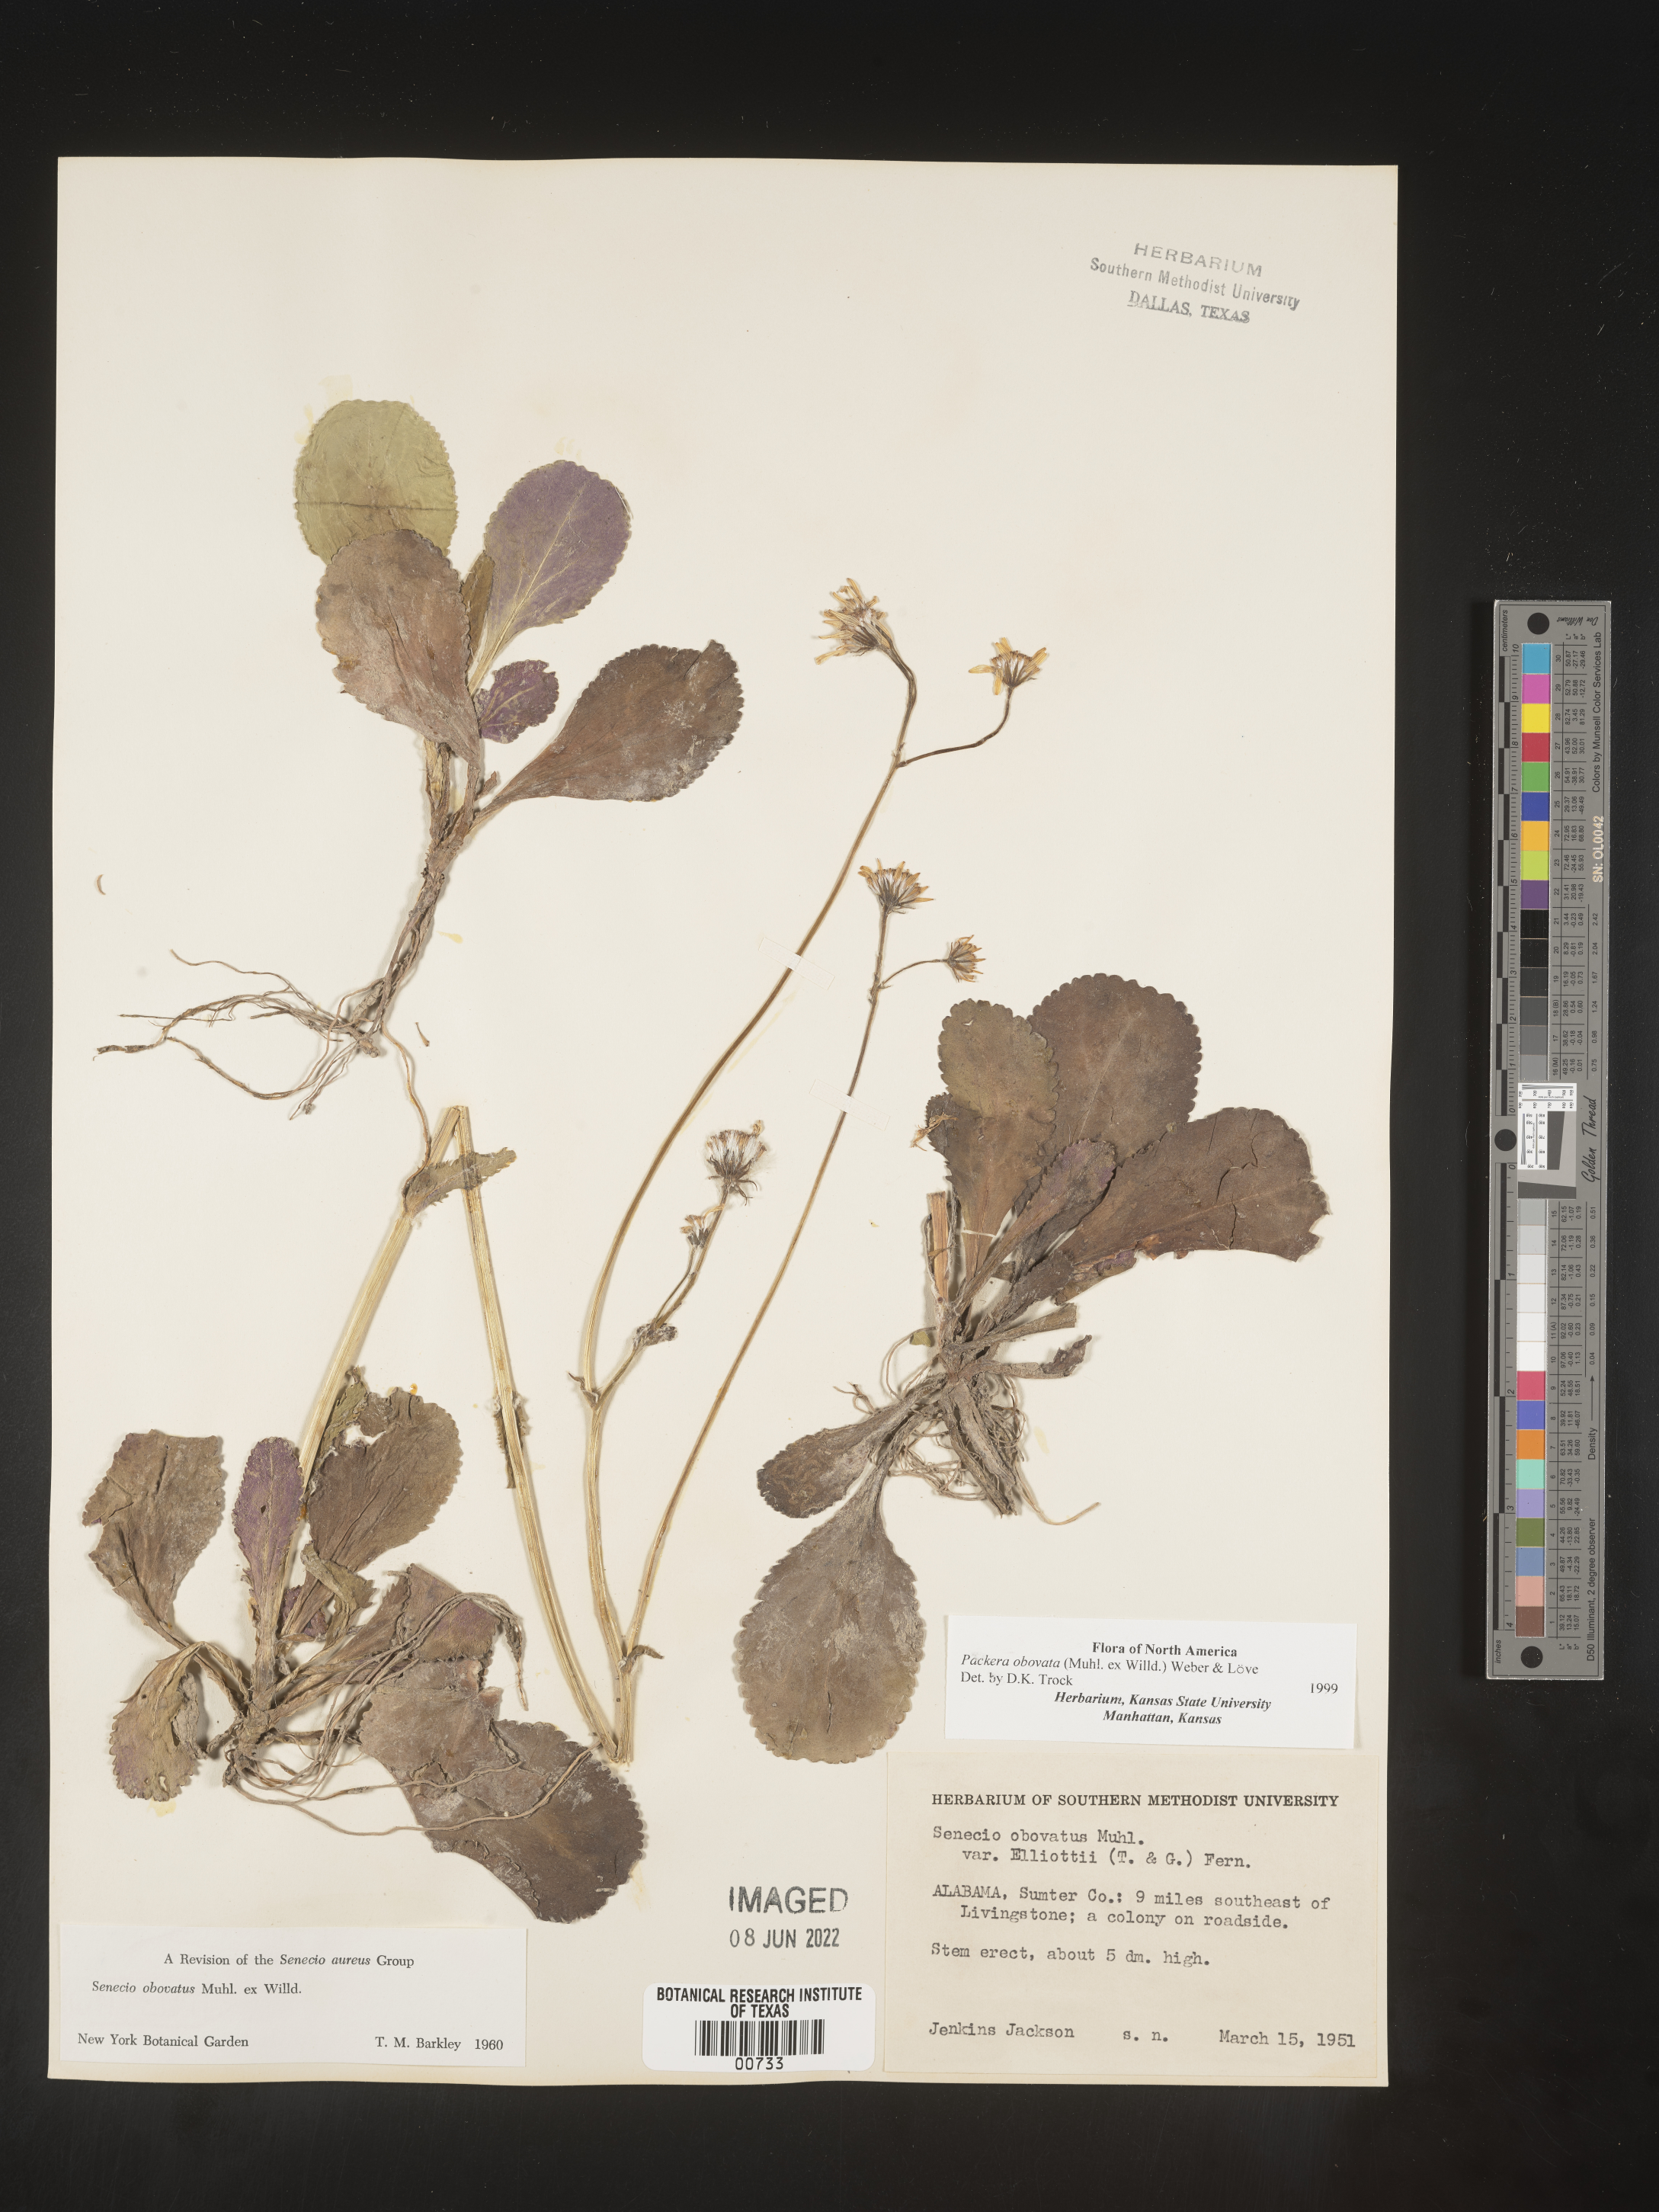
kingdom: Plantae
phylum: Tracheophyta
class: Magnoliopsida
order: Asterales
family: Asteraceae
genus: Packera
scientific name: Packera obovata
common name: Round-leaf ragwort
